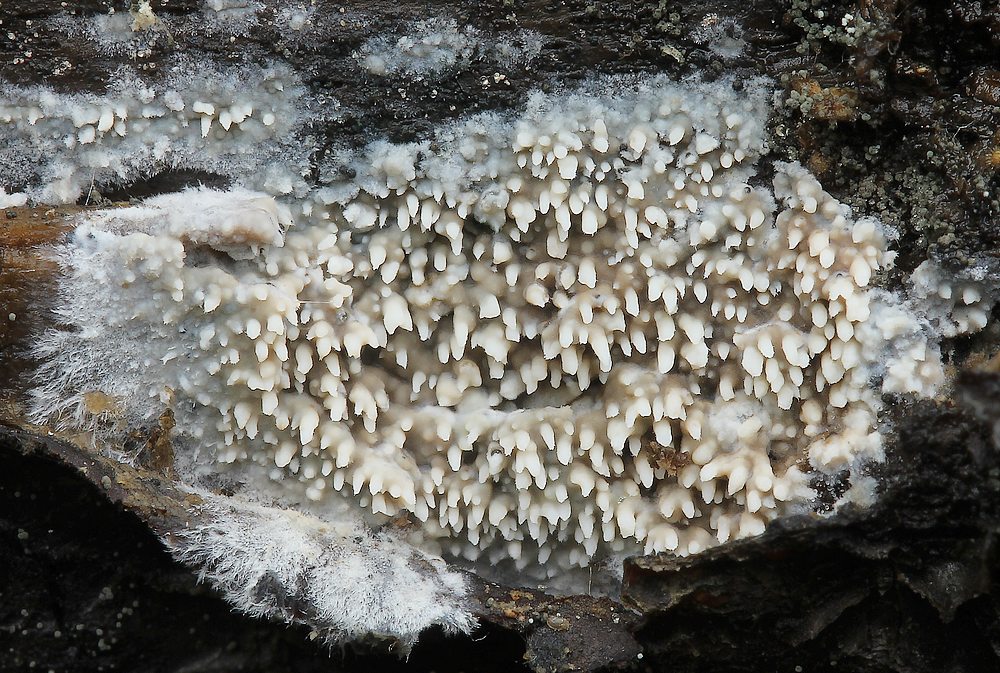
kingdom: Fungi
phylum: Basidiomycota
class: Agaricomycetes
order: Polyporales
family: Meruliaceae
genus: Phlebia
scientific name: Phlebia
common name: åresvamp
